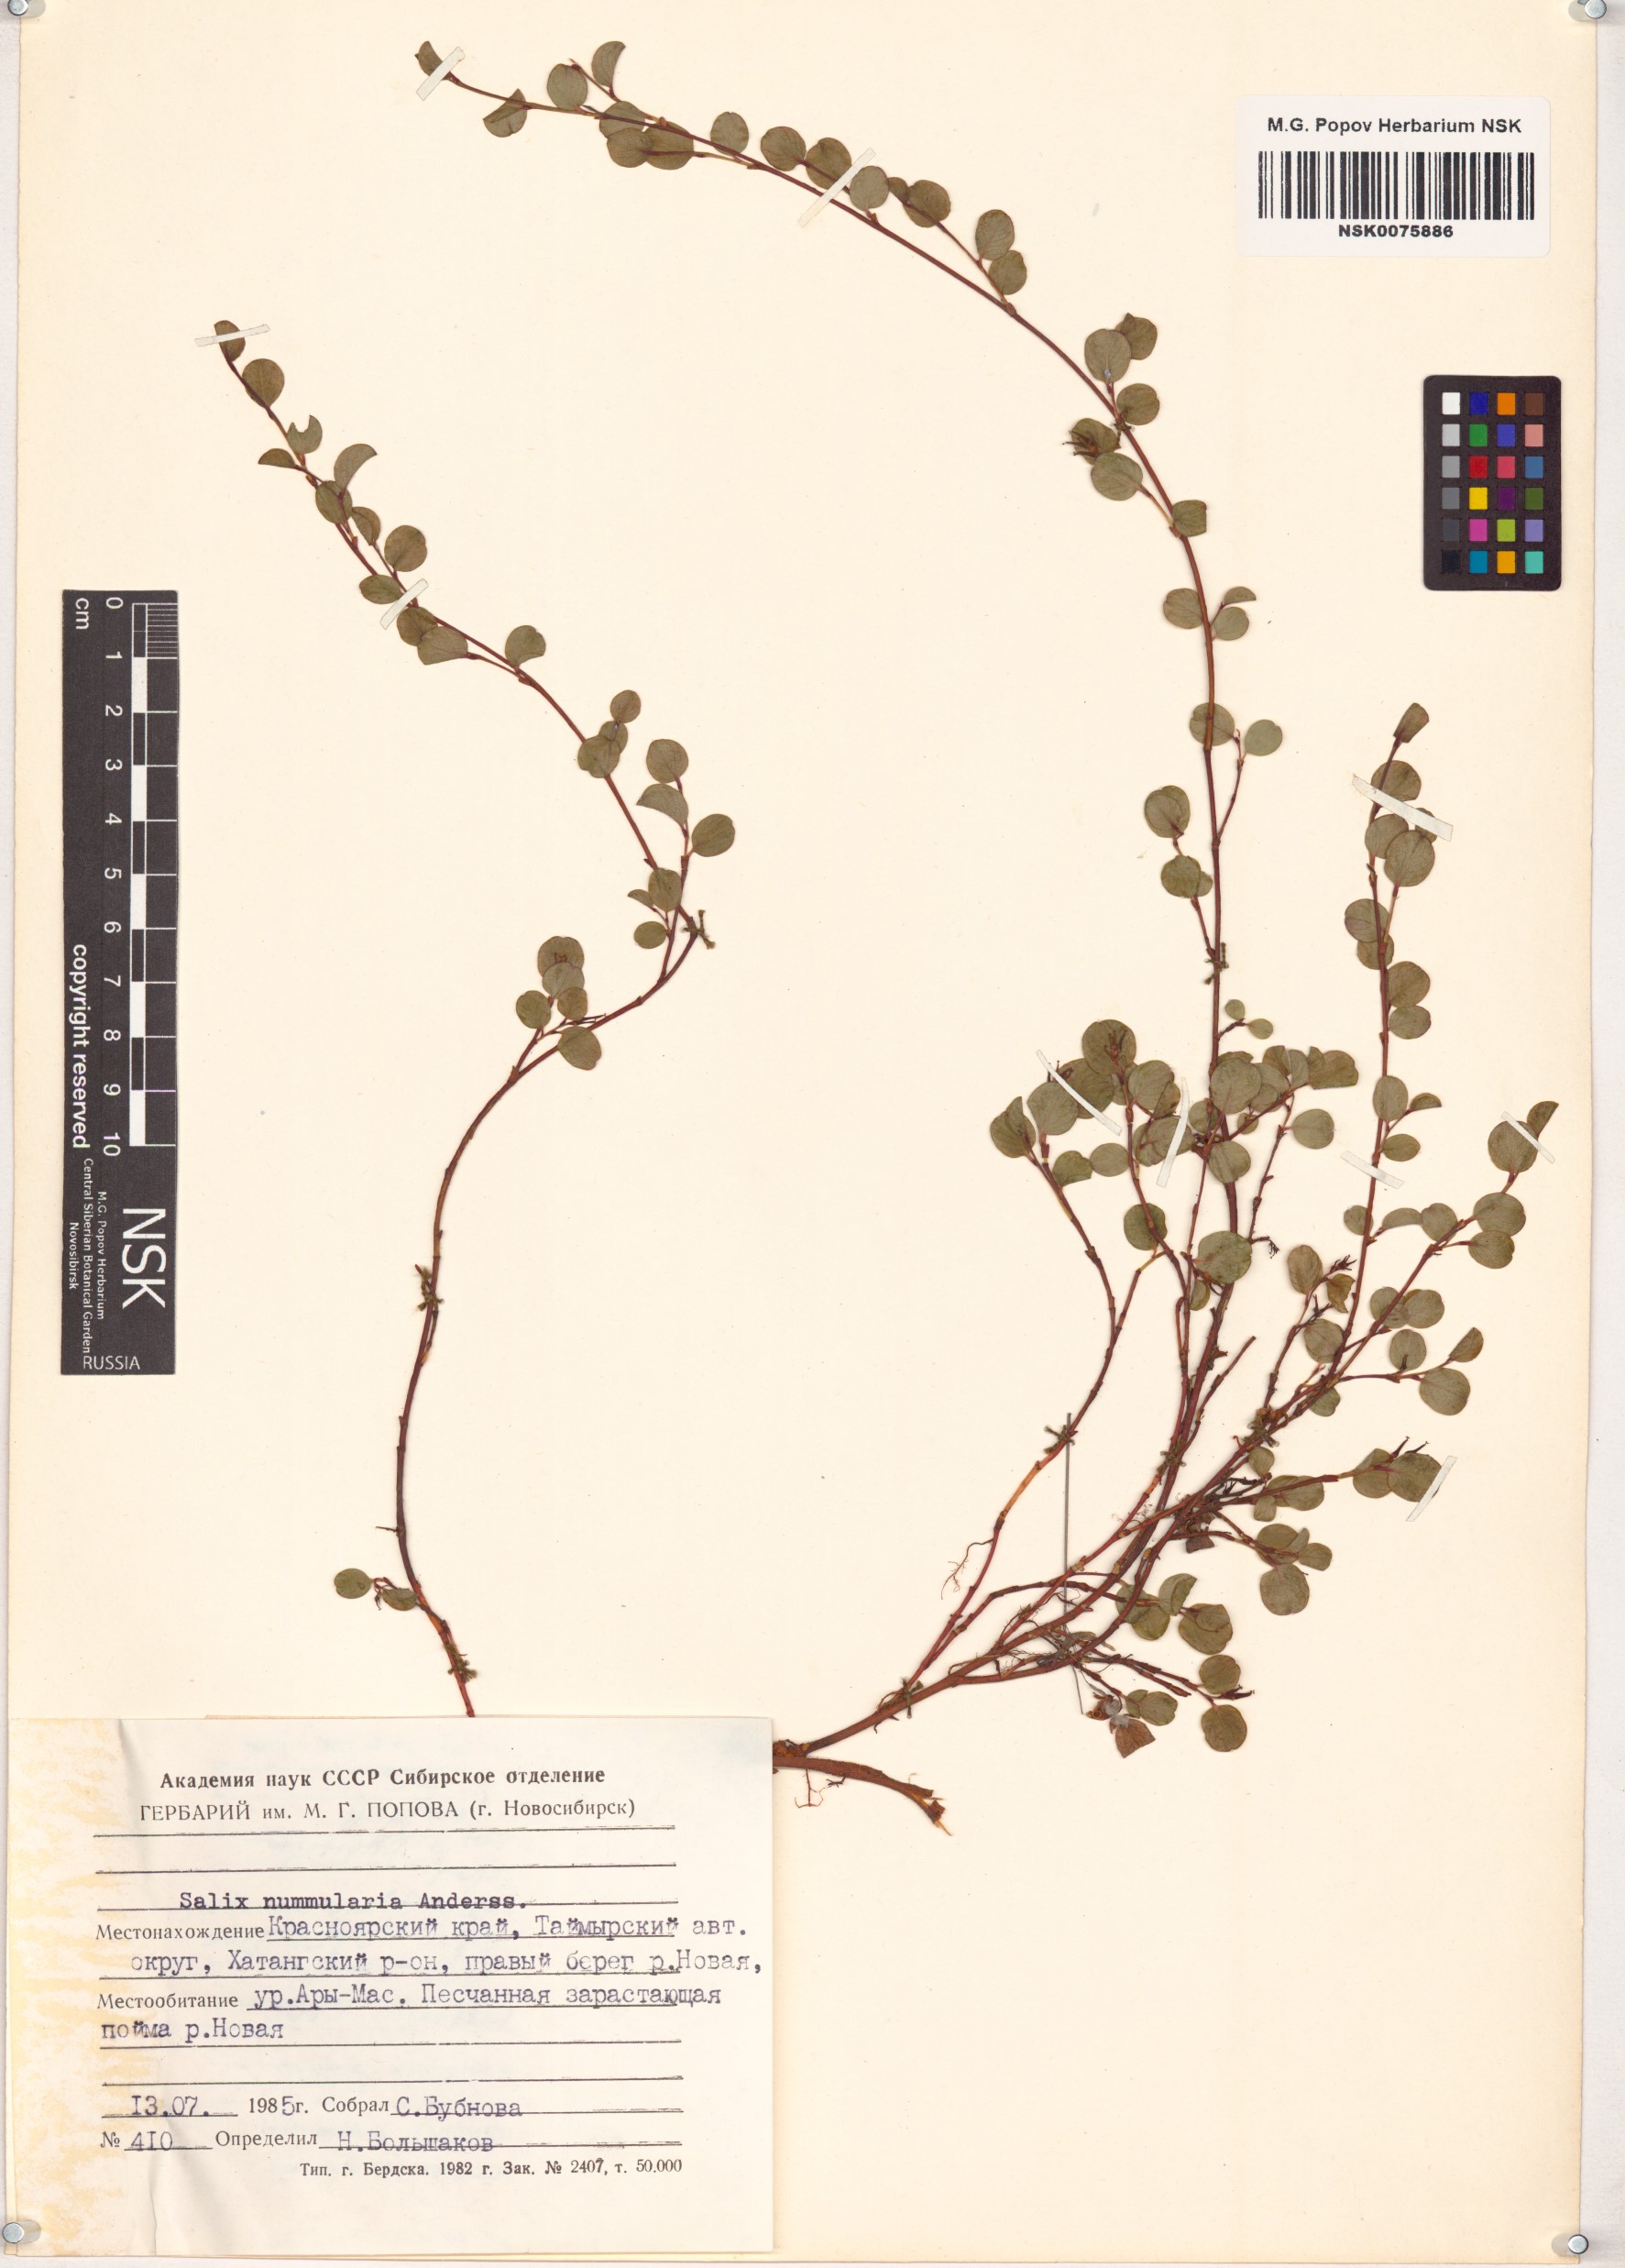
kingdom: Plantae
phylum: Tracheophyta
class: Magnoliopsida
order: Malpighiales
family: Salicaceae
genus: Salix
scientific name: Salix nummularia
